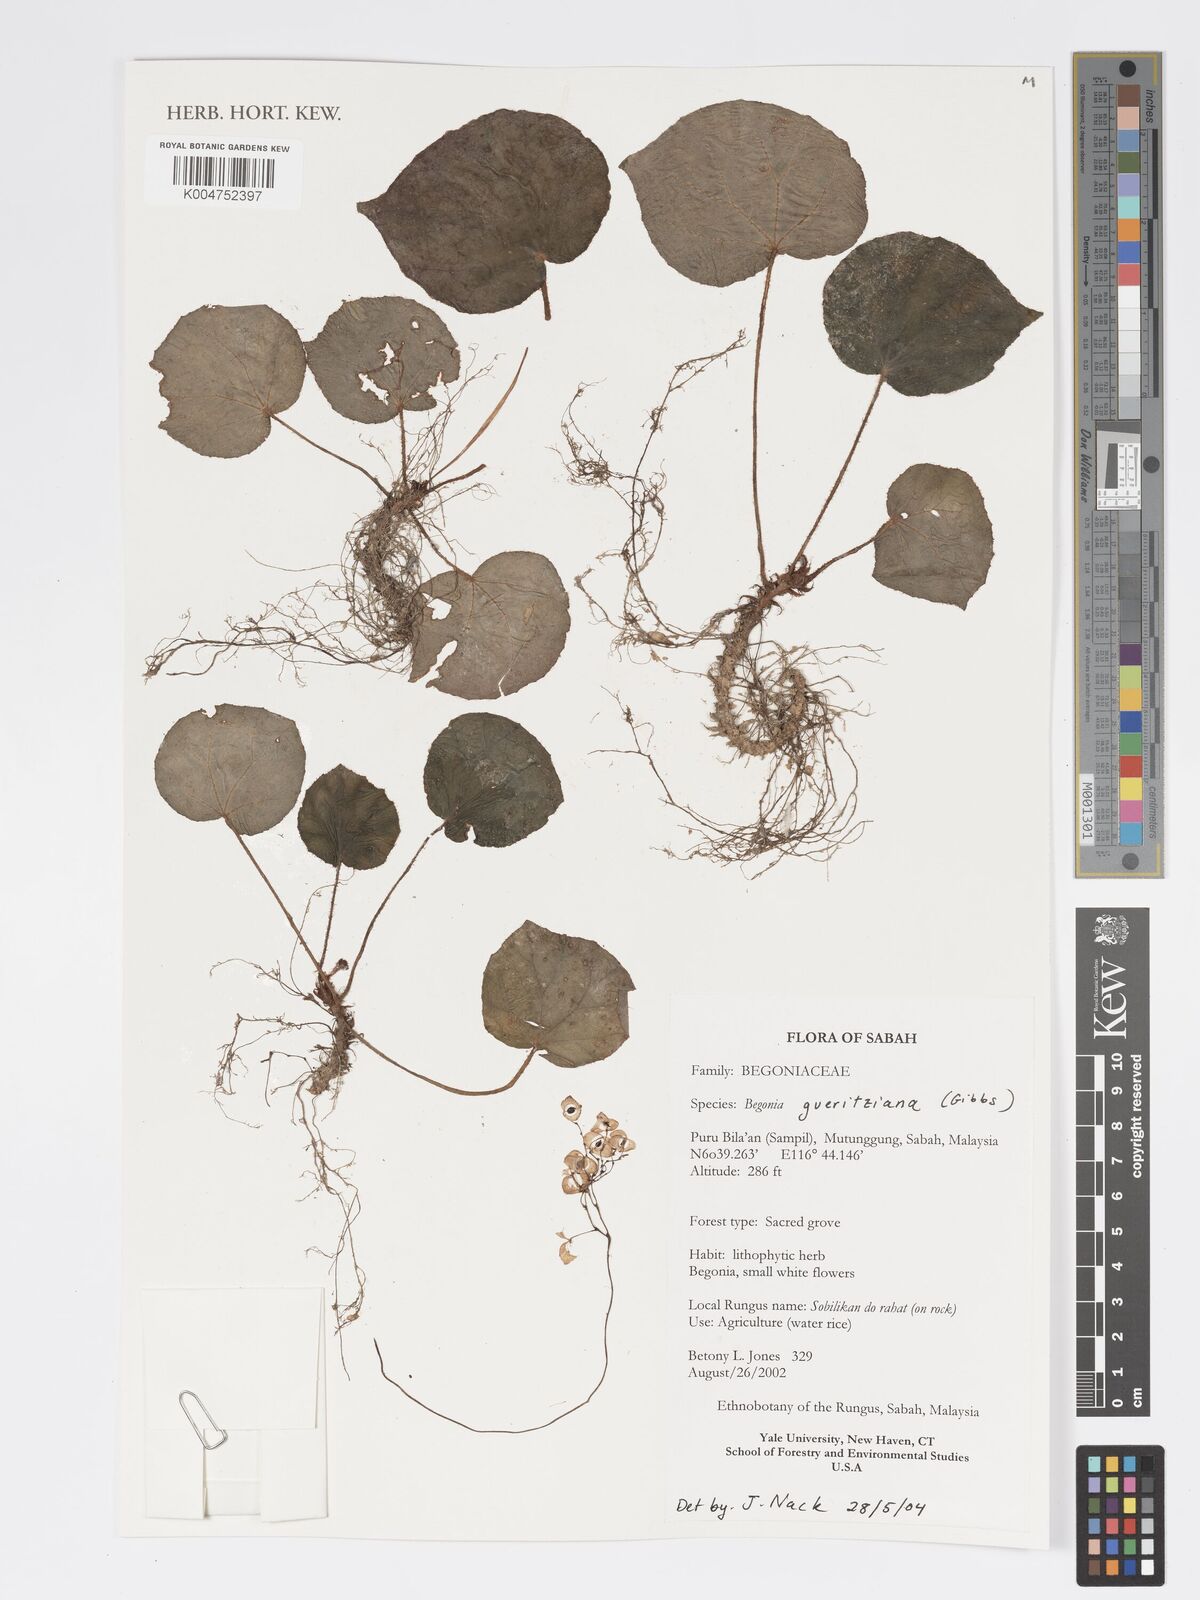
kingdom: Plantae
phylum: Tracheophyta
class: Magnoliopsida
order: Cucurbitales
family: Begoniaceae
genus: Begonia
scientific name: Begonia gueritziana
